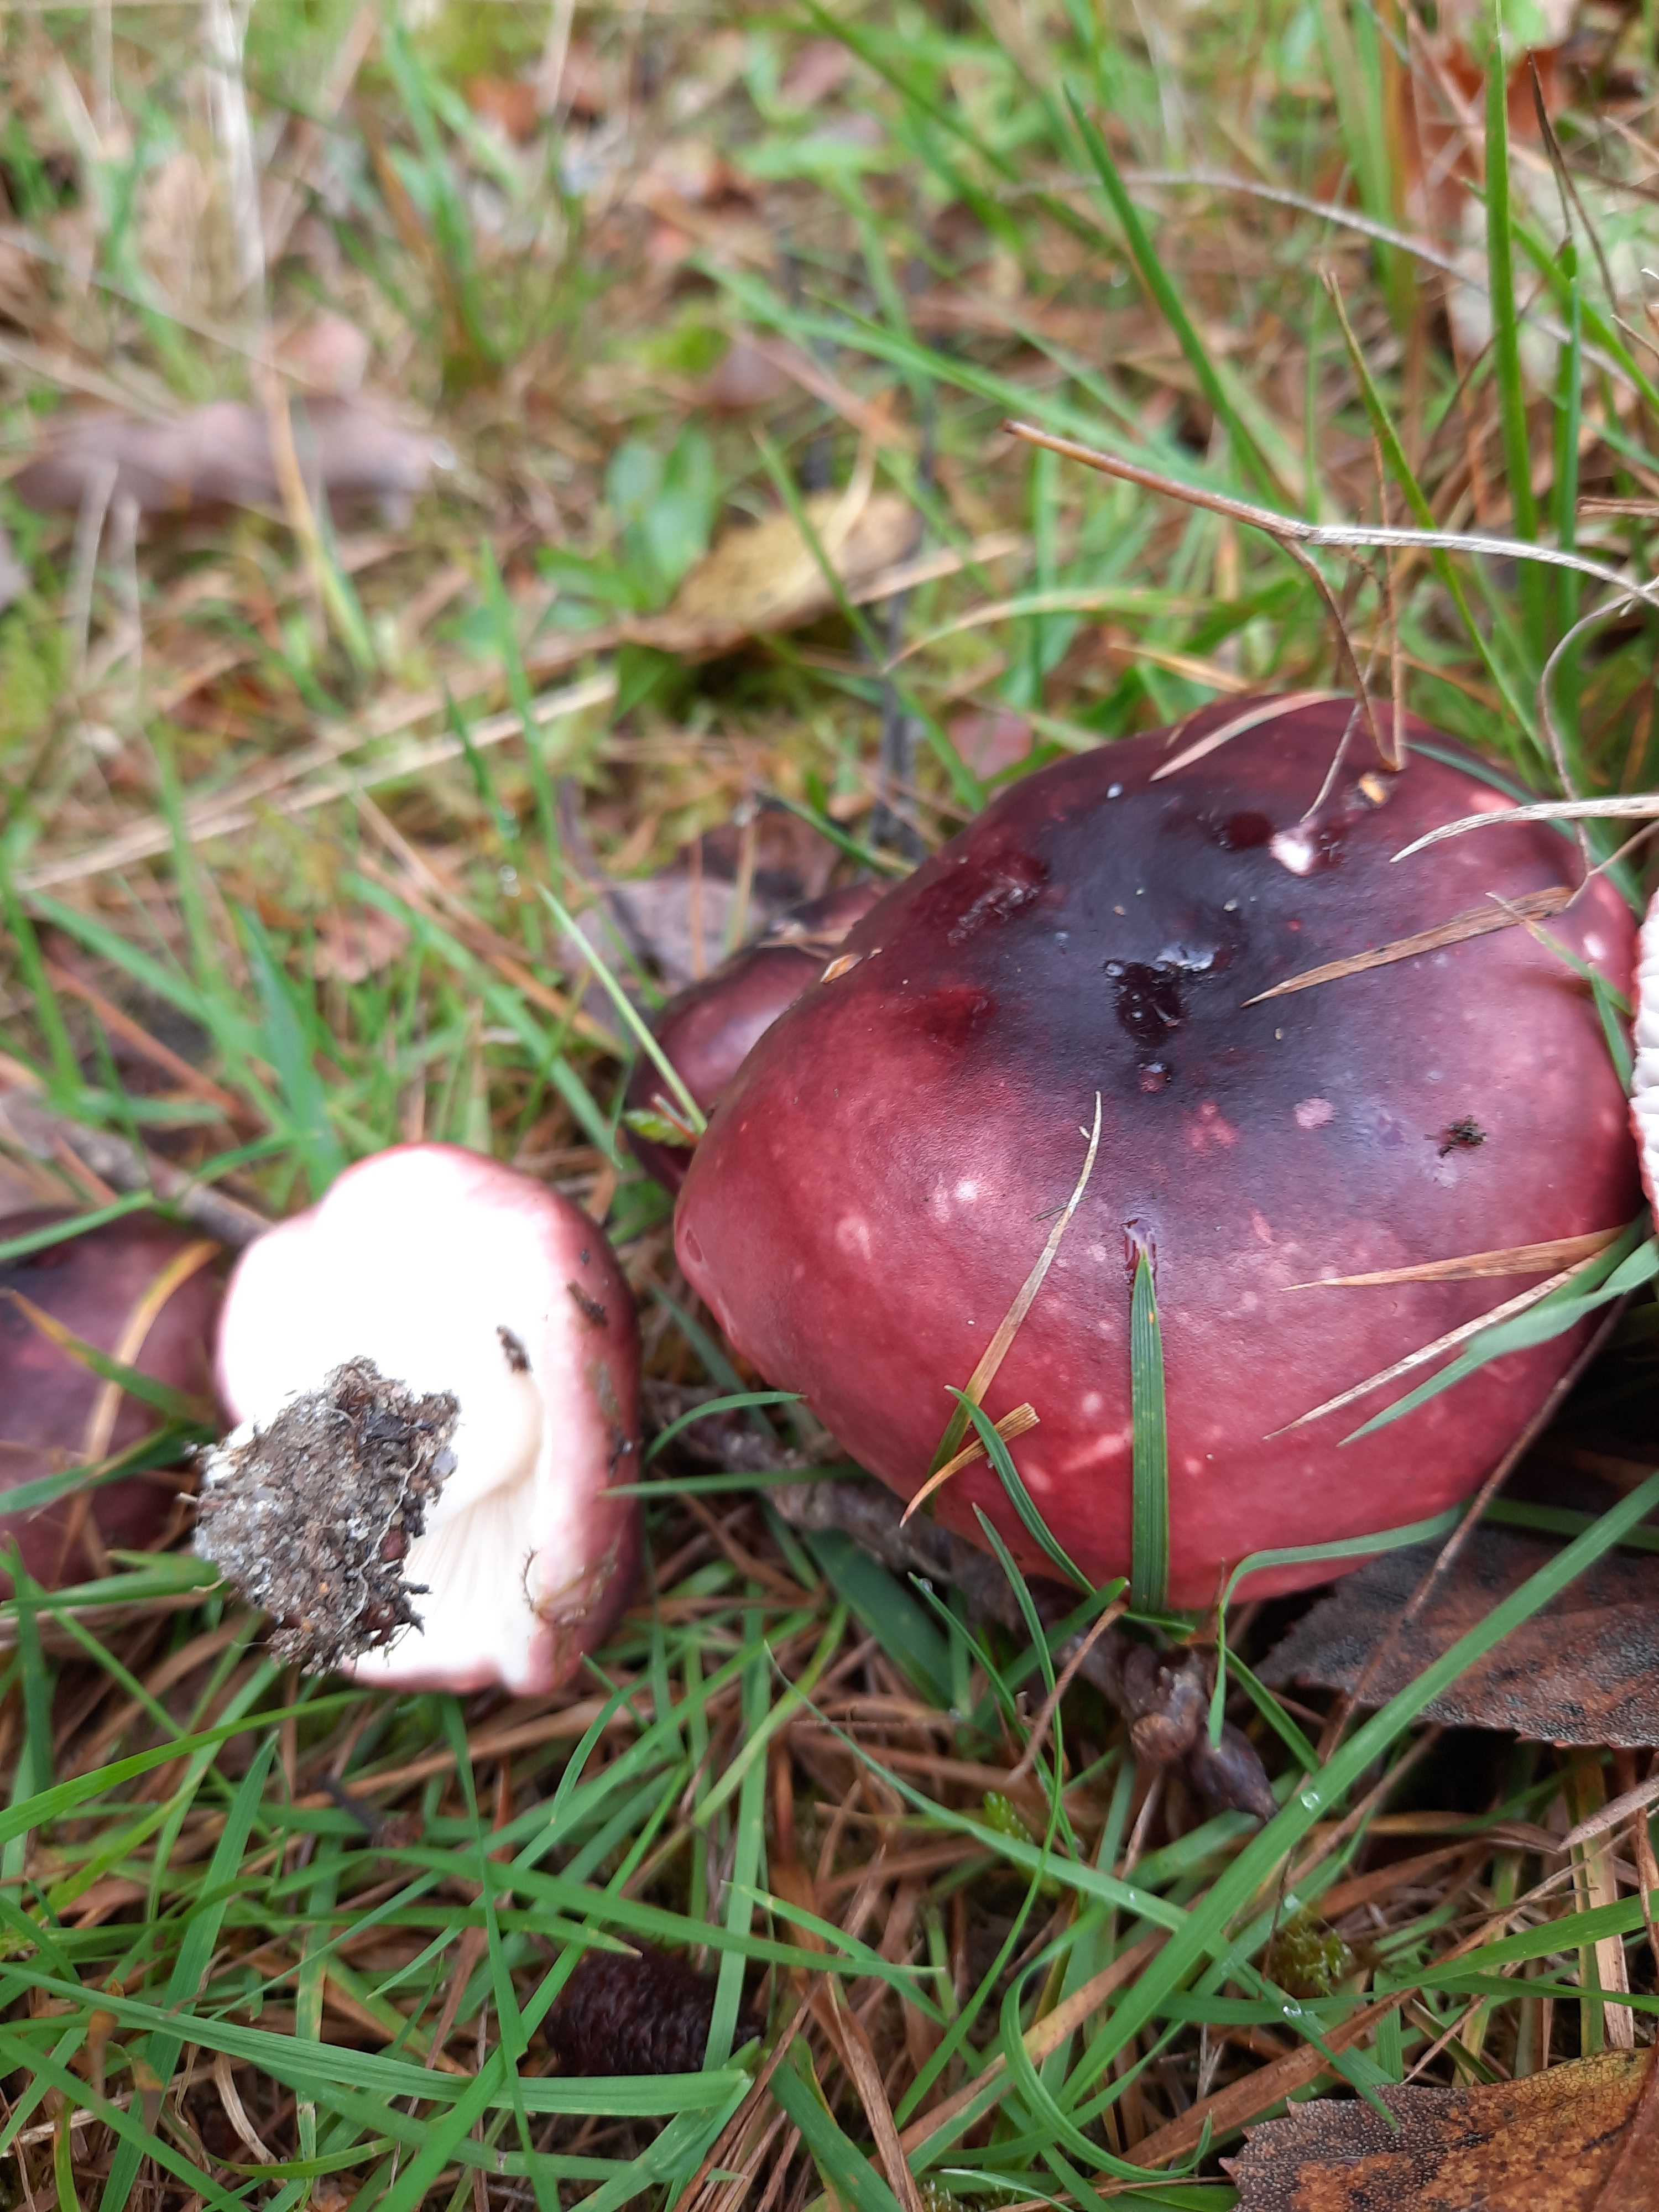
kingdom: Fungi
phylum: Basidiomycota
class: Agaricomycetes
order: Russulales
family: Russulaceae
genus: Russula
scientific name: Russula atropurpurea
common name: purpurbroget skørhat
